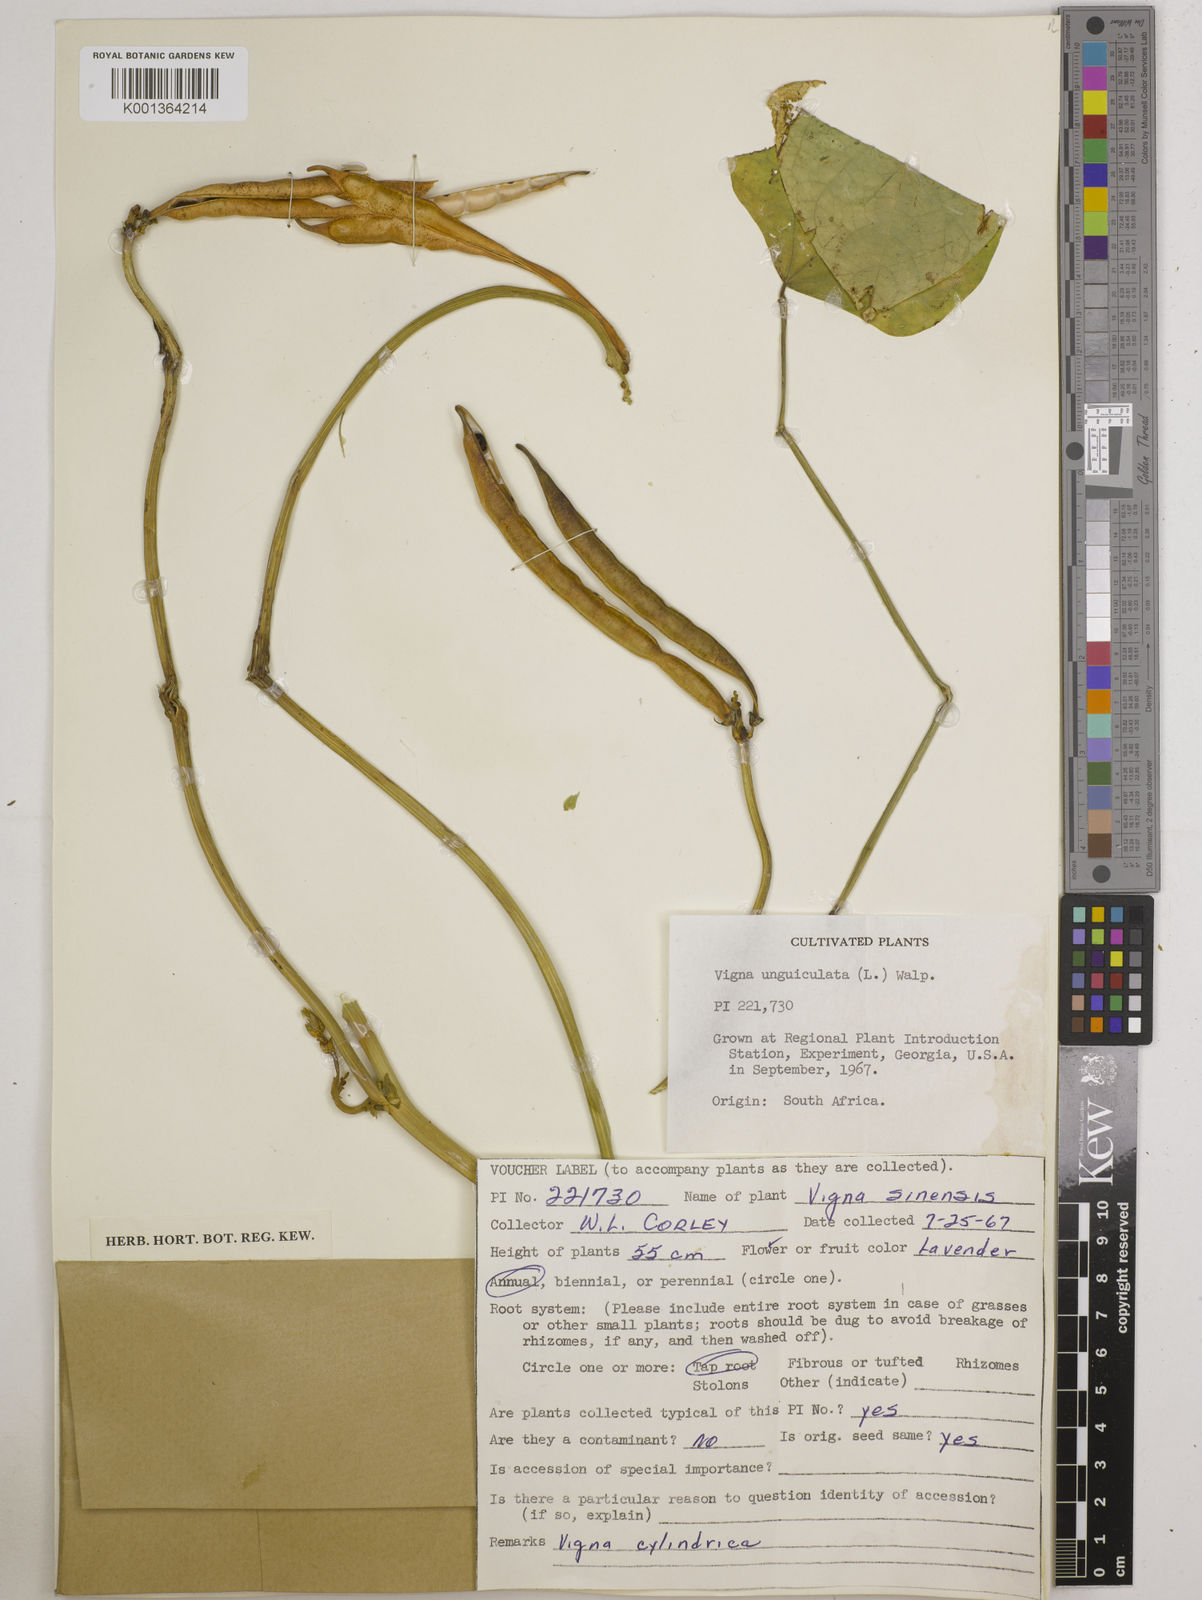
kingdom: Plantae
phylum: Tracheophyta
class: Magnoliopsida
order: Fabales
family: Fabaceae
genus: Vigna
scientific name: Vigna
